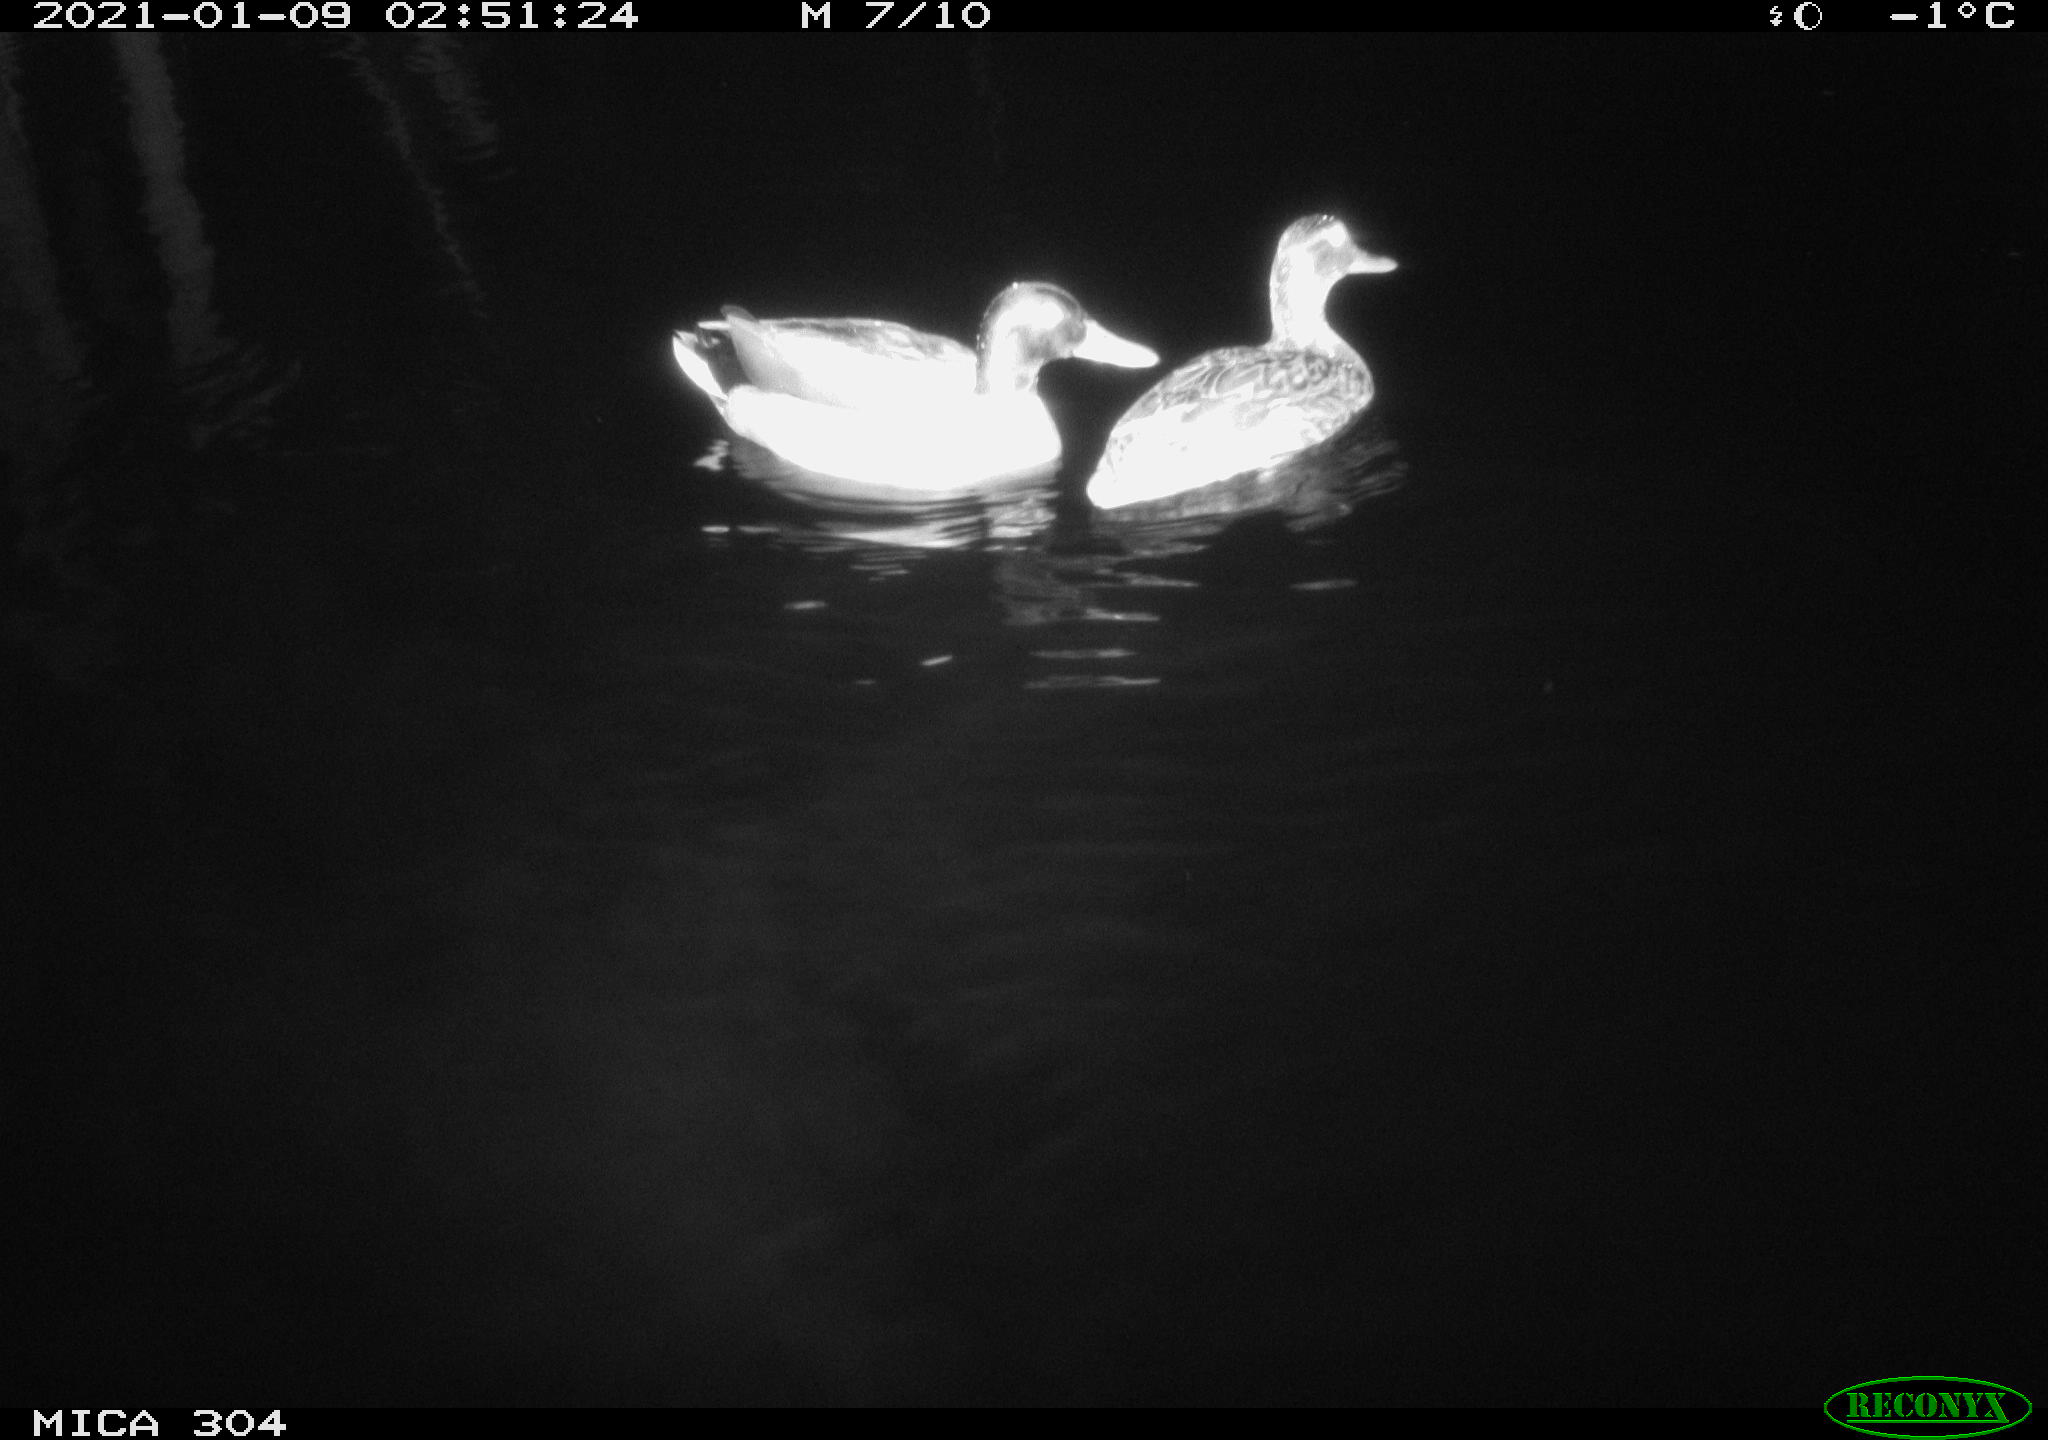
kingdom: Animalia
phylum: Chordata
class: Aves
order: Anseriformes
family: Anatidae
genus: Anas
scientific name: Anas platyrhynchos
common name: Mallard
